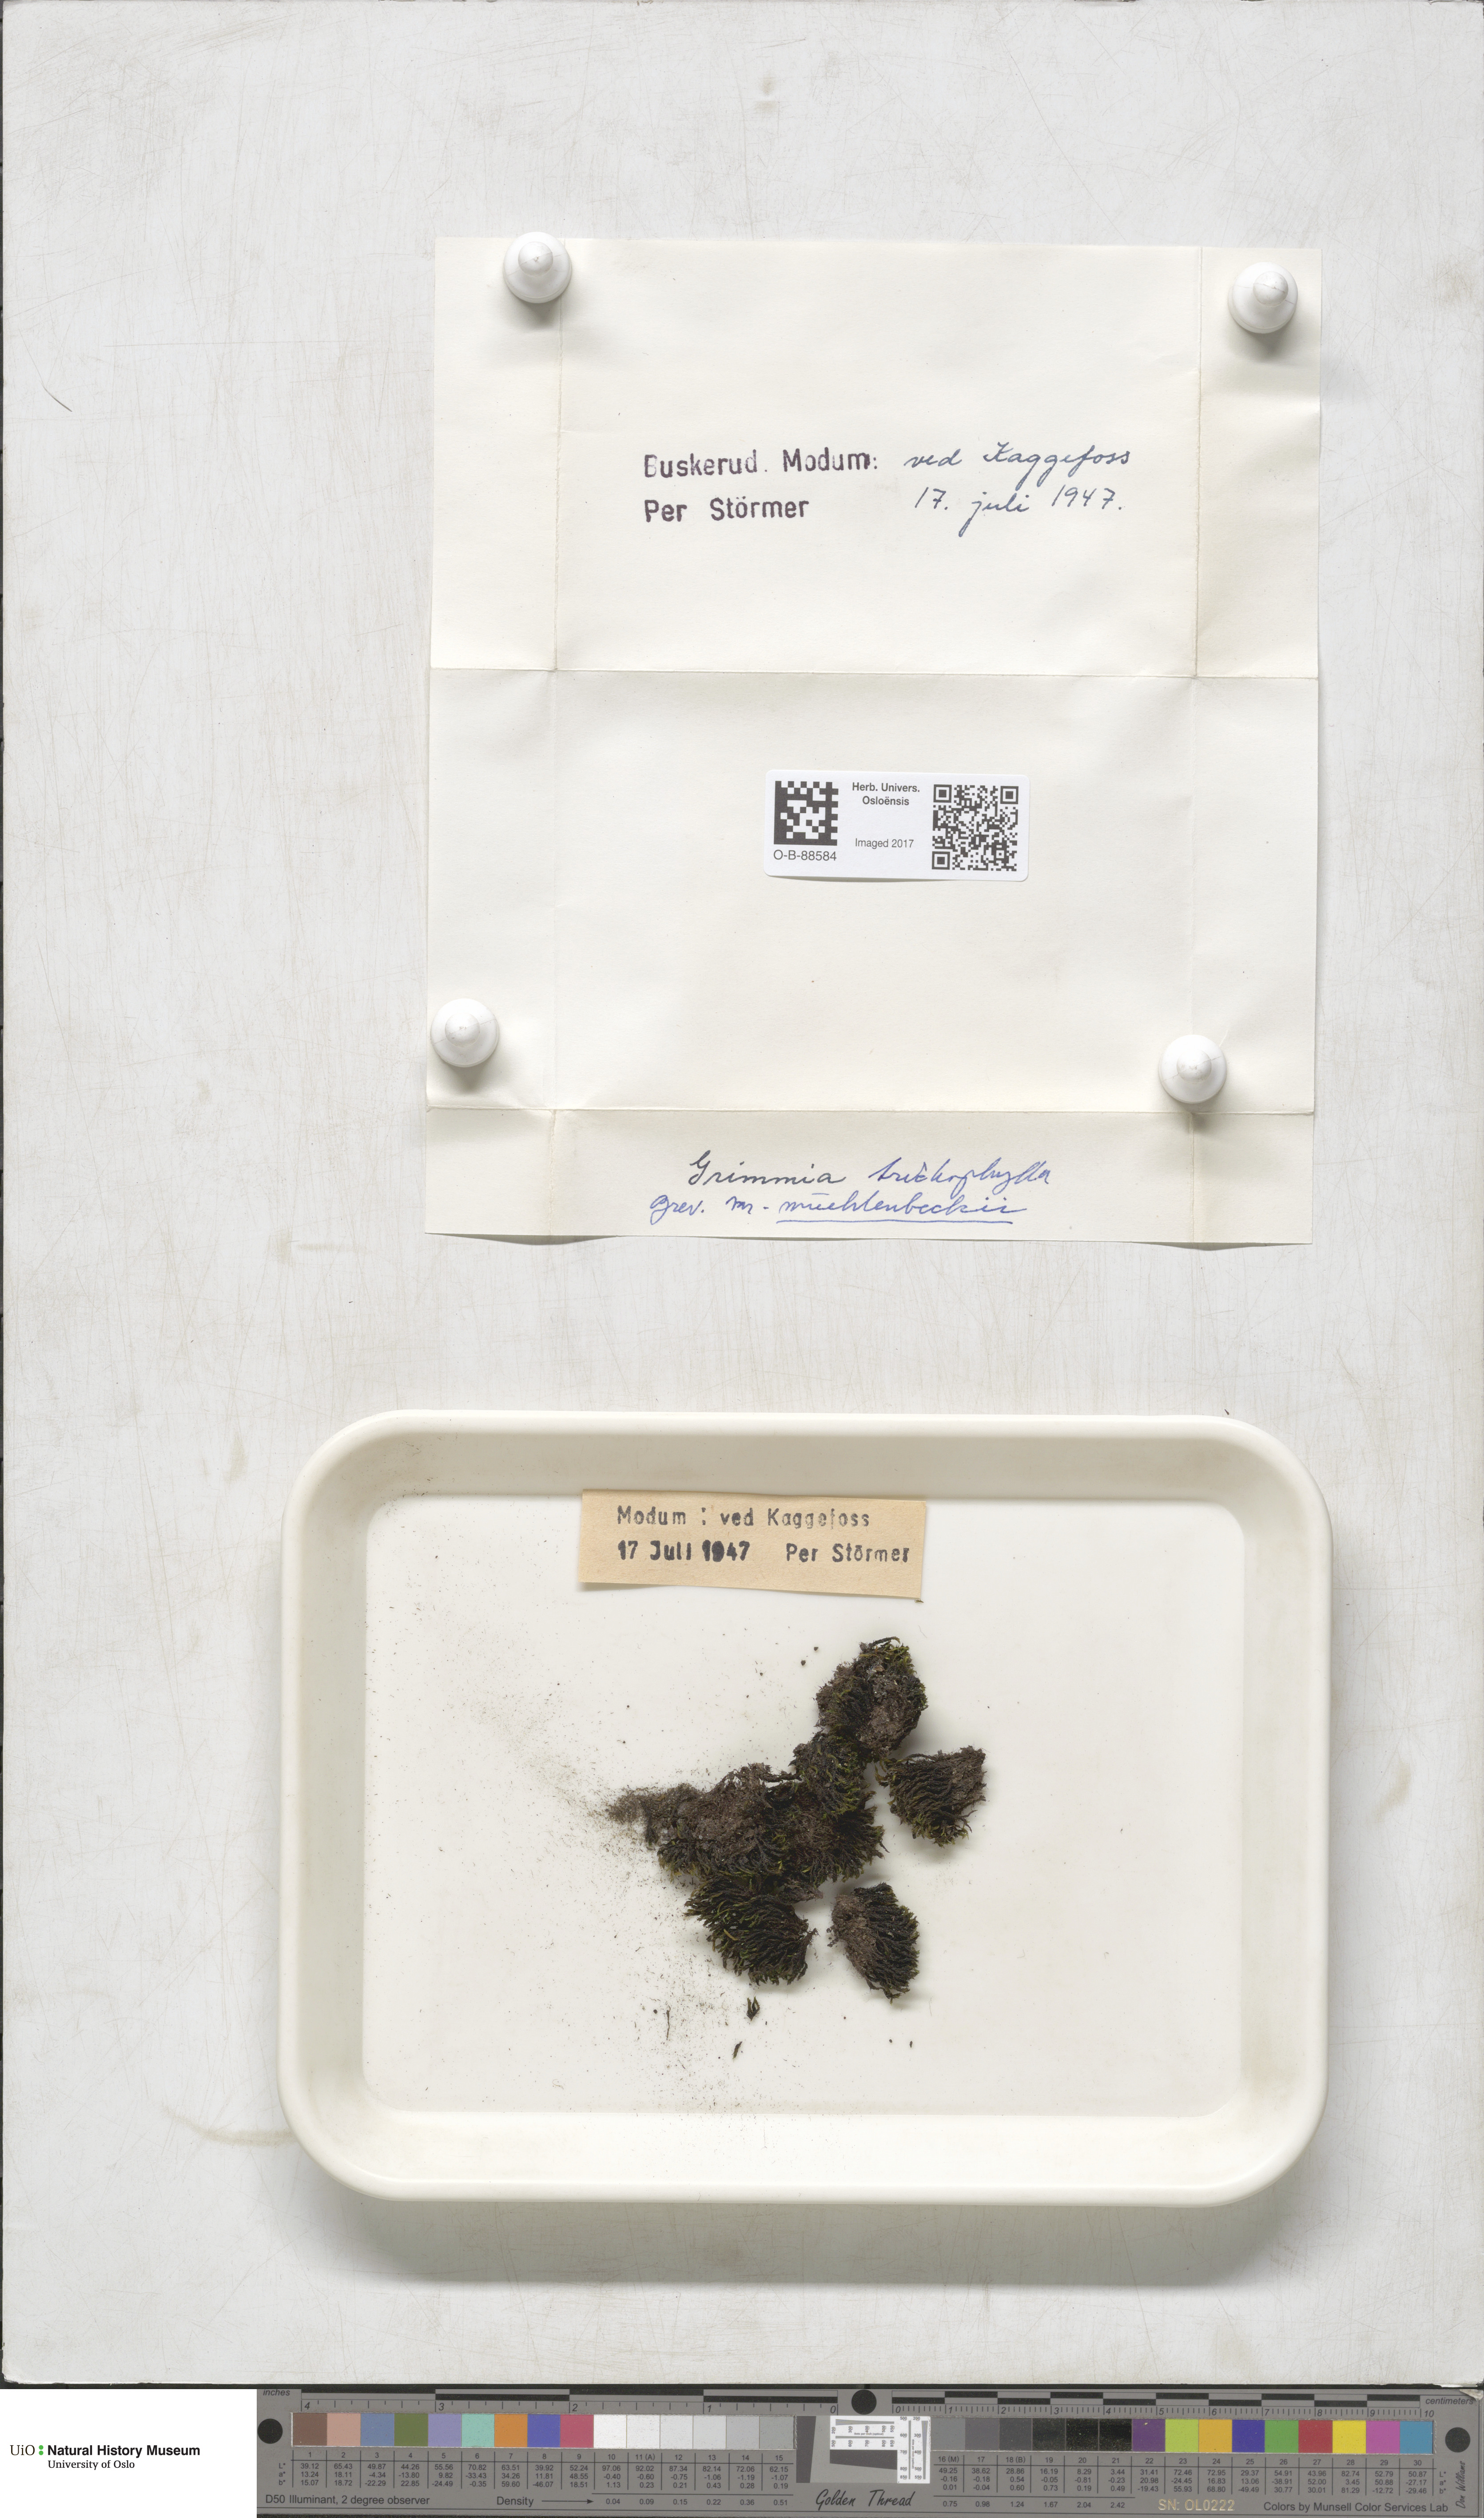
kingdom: Plantae
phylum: Bryophyta
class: Bryopsida
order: Grimmiales
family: Grimmiaceae
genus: Grimmia
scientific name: Grimmia muehlenbeckii
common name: Muehlenbeck's grimmia
